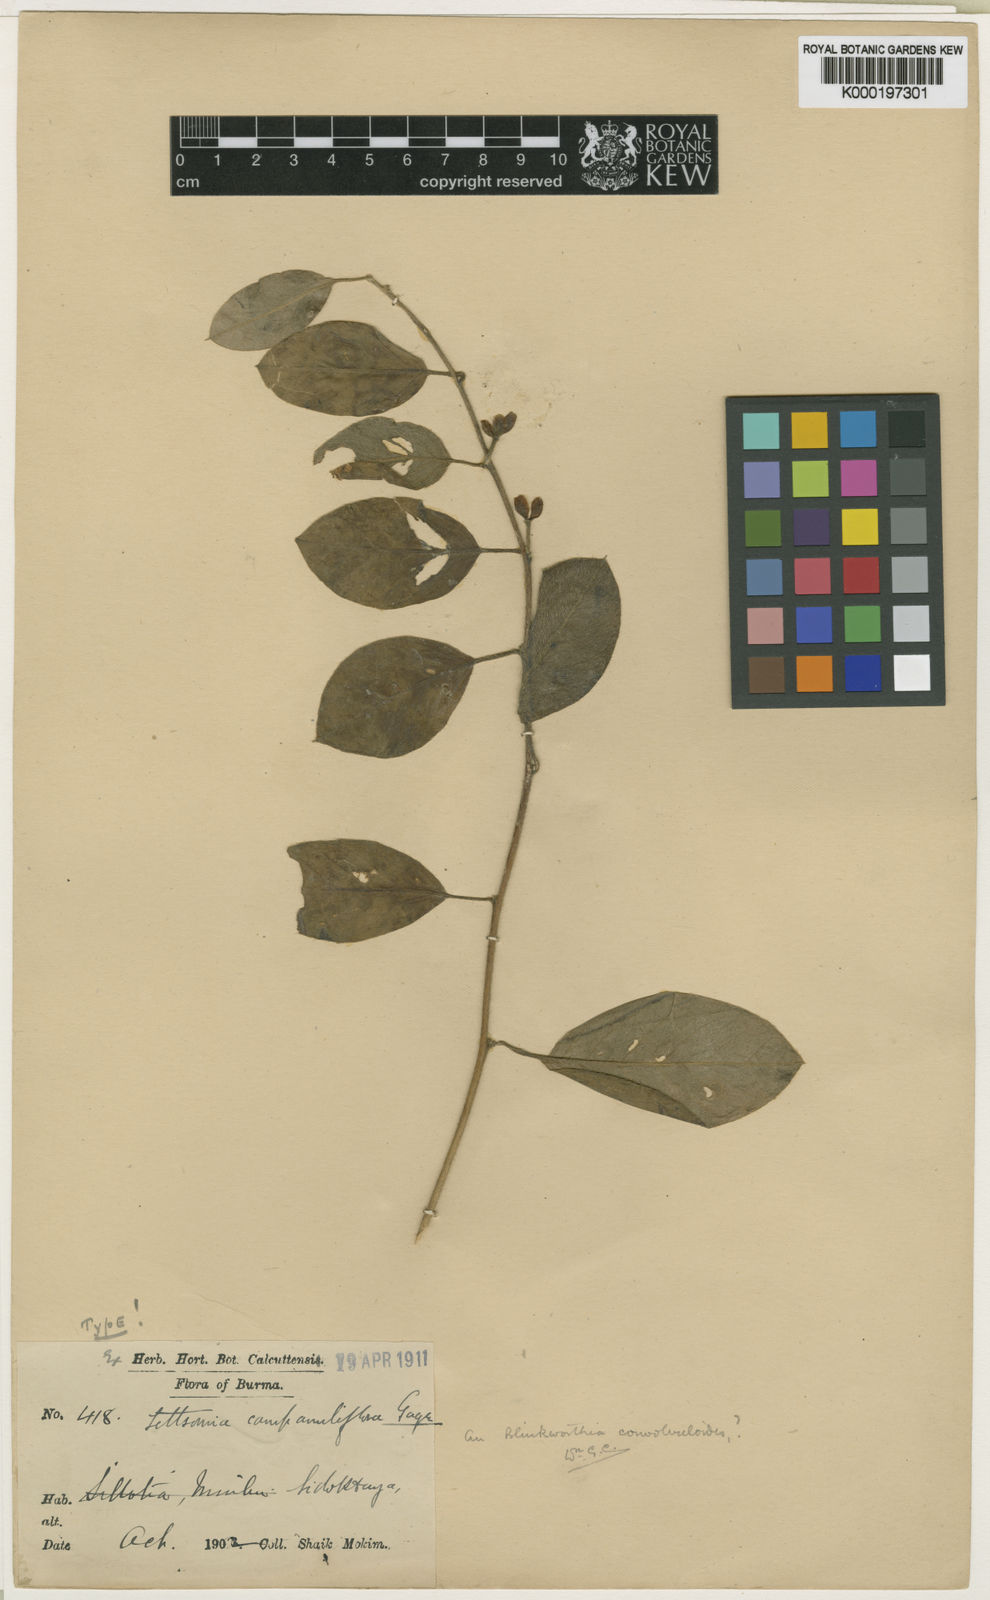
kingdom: Plantae
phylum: Tracheophyta
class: Magnoliopsida
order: Solanales
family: Convolvulaceae
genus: Argyreia
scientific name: Argyreia
